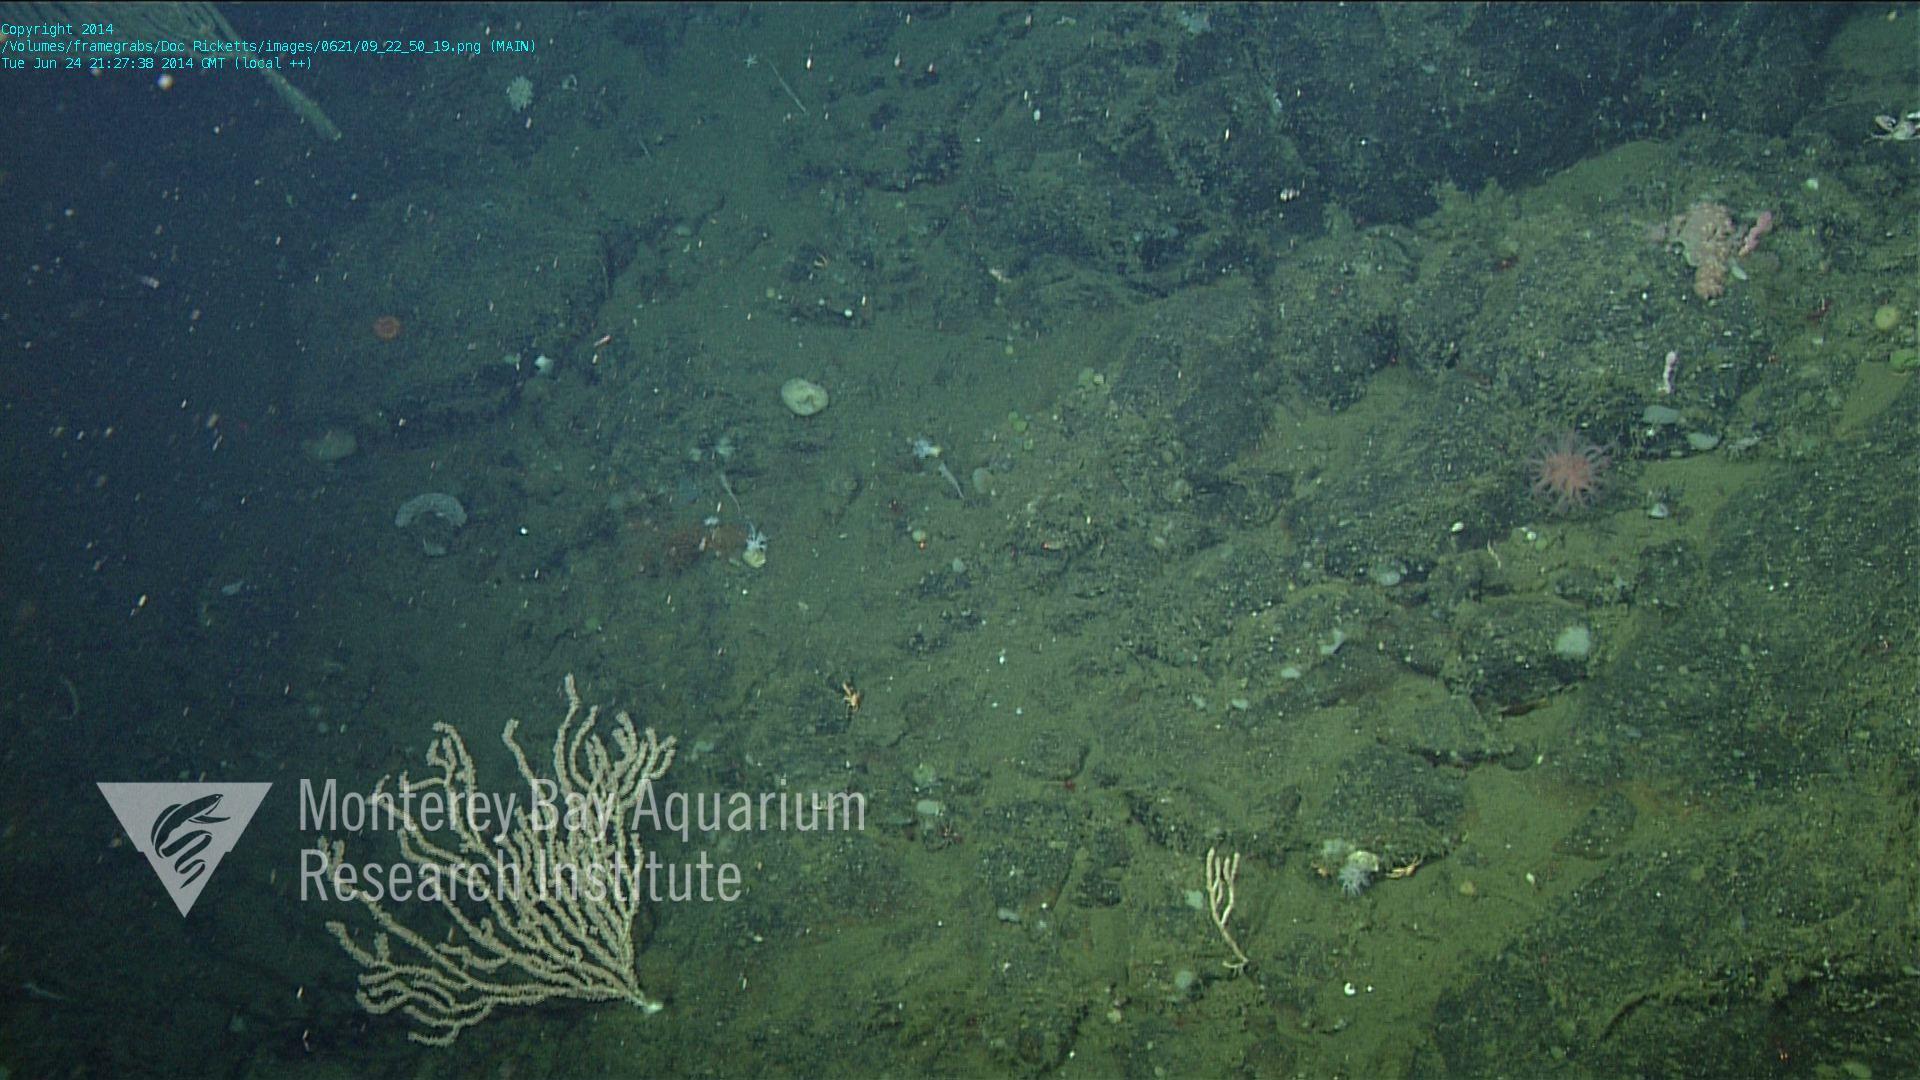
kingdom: Animalia
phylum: Cnidaria
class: Anthozoa
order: Scleralcyonacea
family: Coralliidae
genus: Heteropolypus
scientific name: Heteropolypus ritteri
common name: Ritter's soft coral
